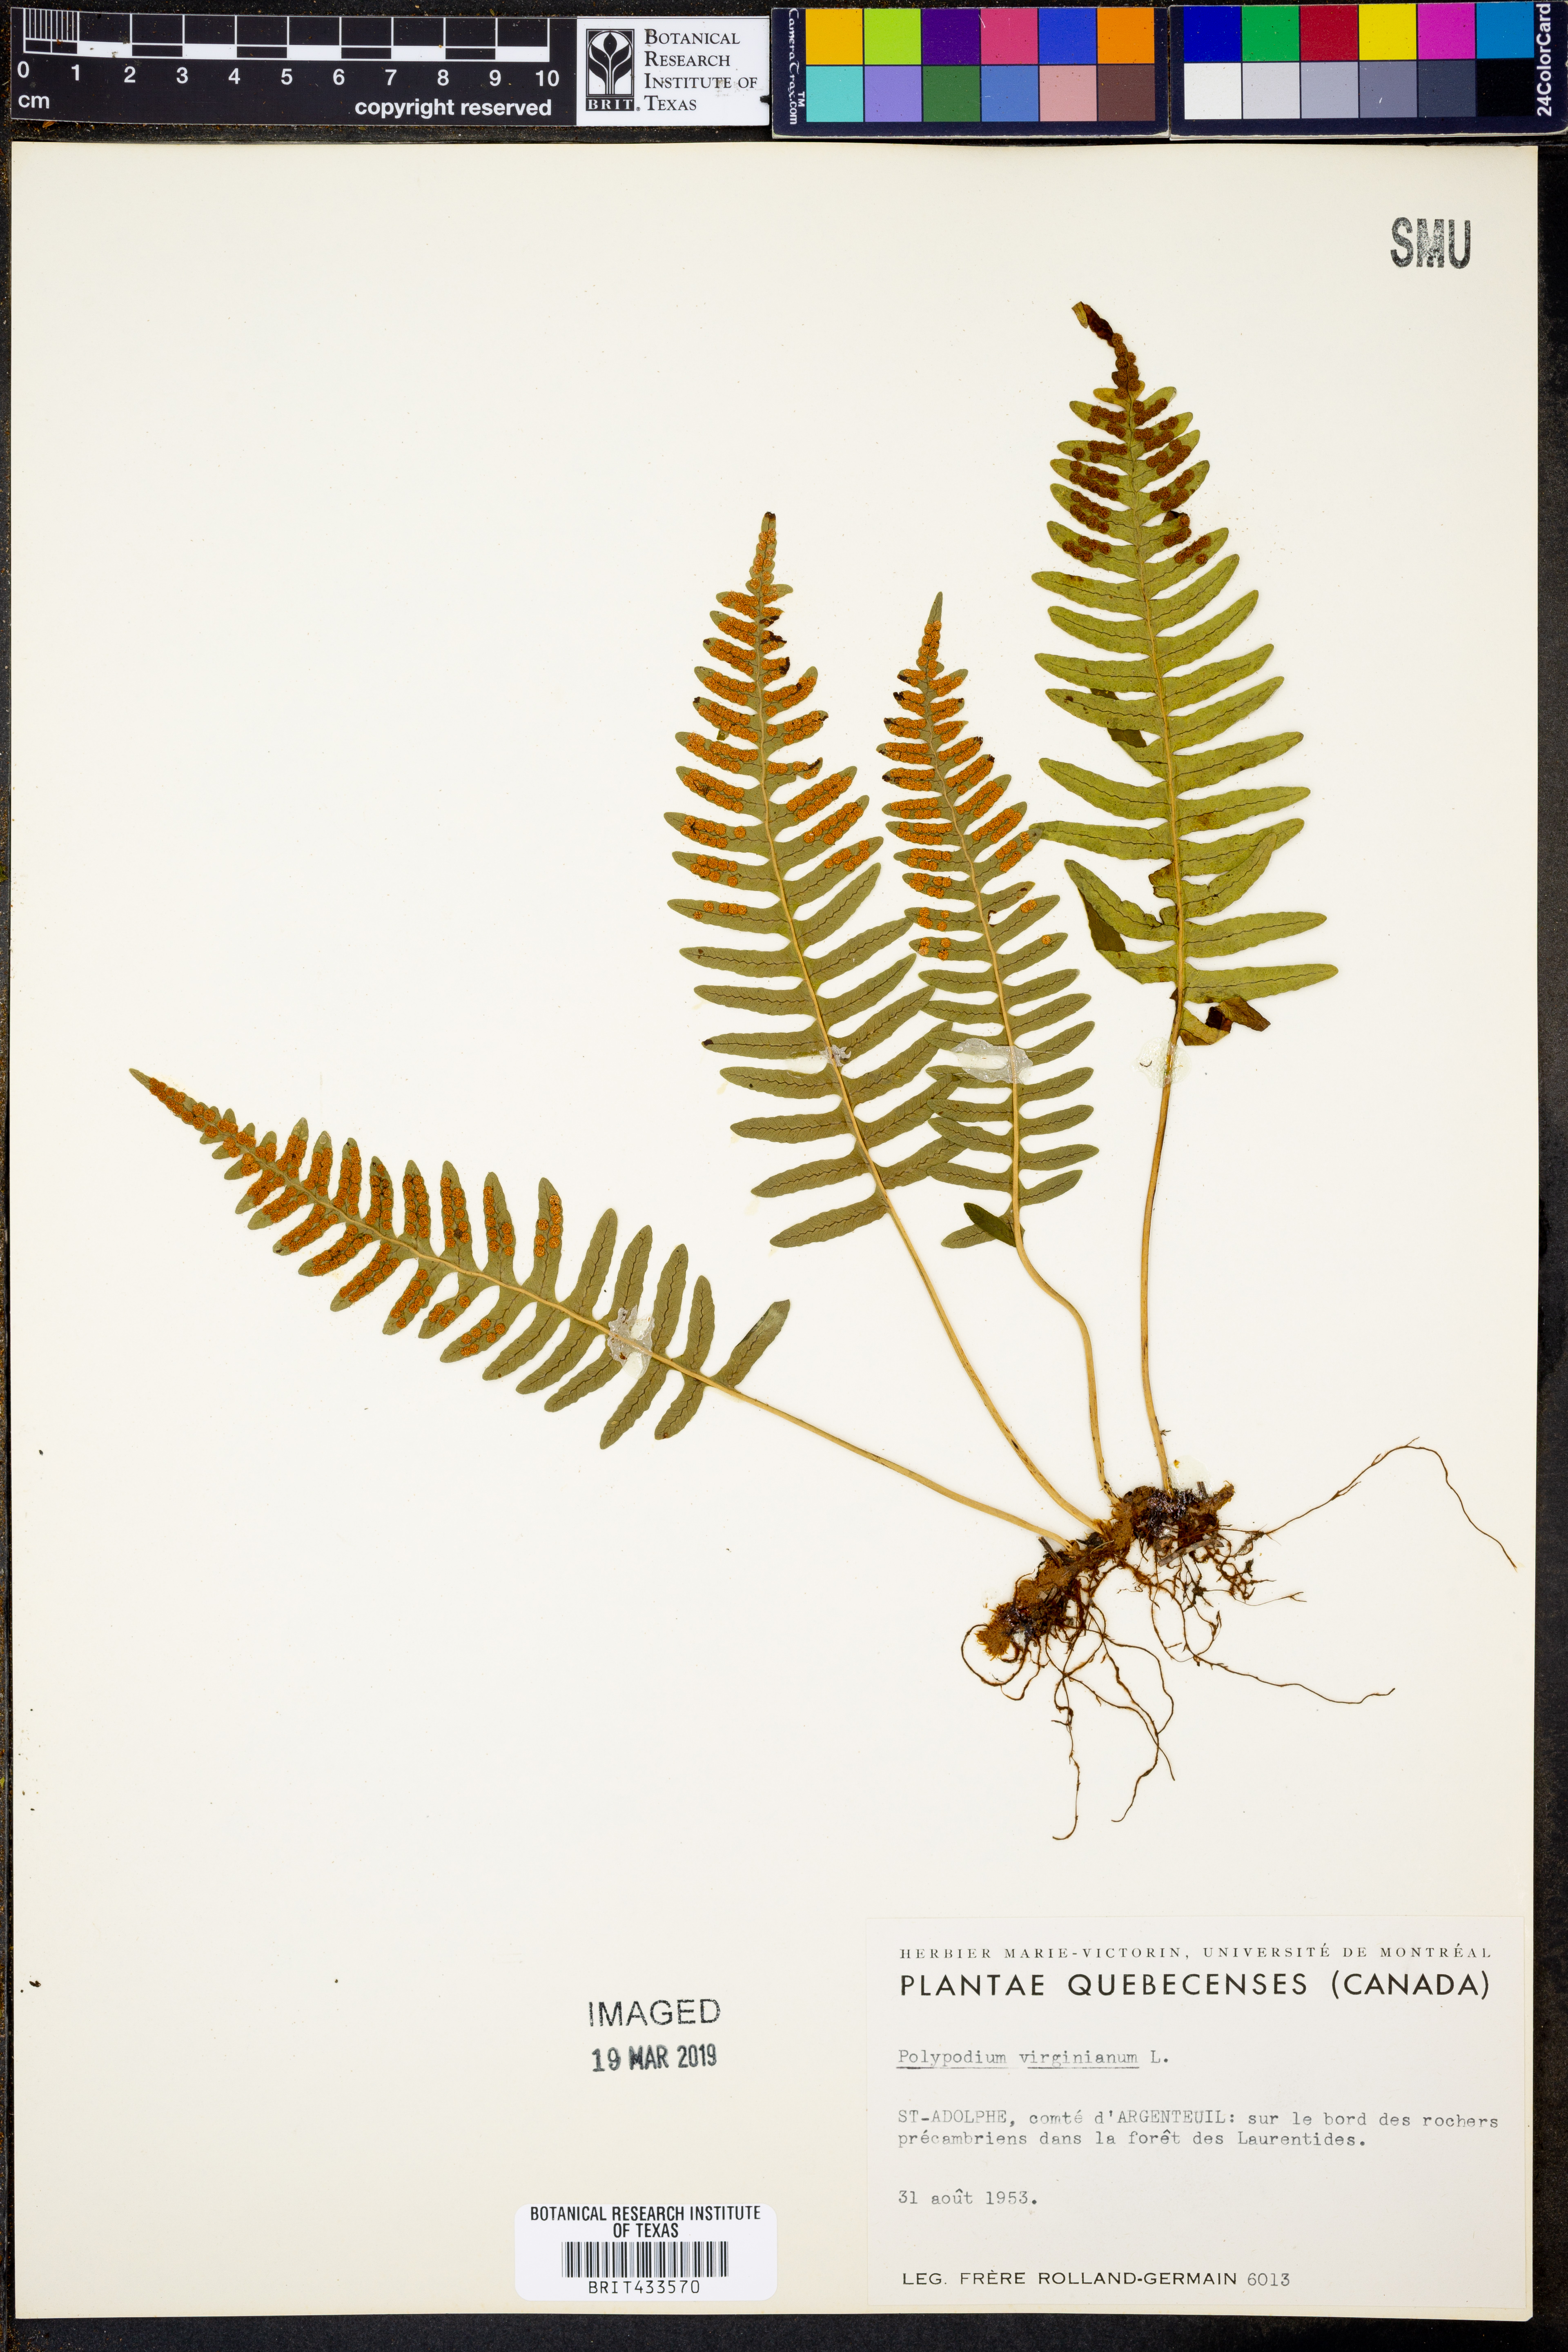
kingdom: Plantae
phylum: Tracheophyta
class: Polypodiopsida
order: Polypodiales
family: Polypodiaceae
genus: Polypodium
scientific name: Polypodium virginianum
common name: American wall fern
